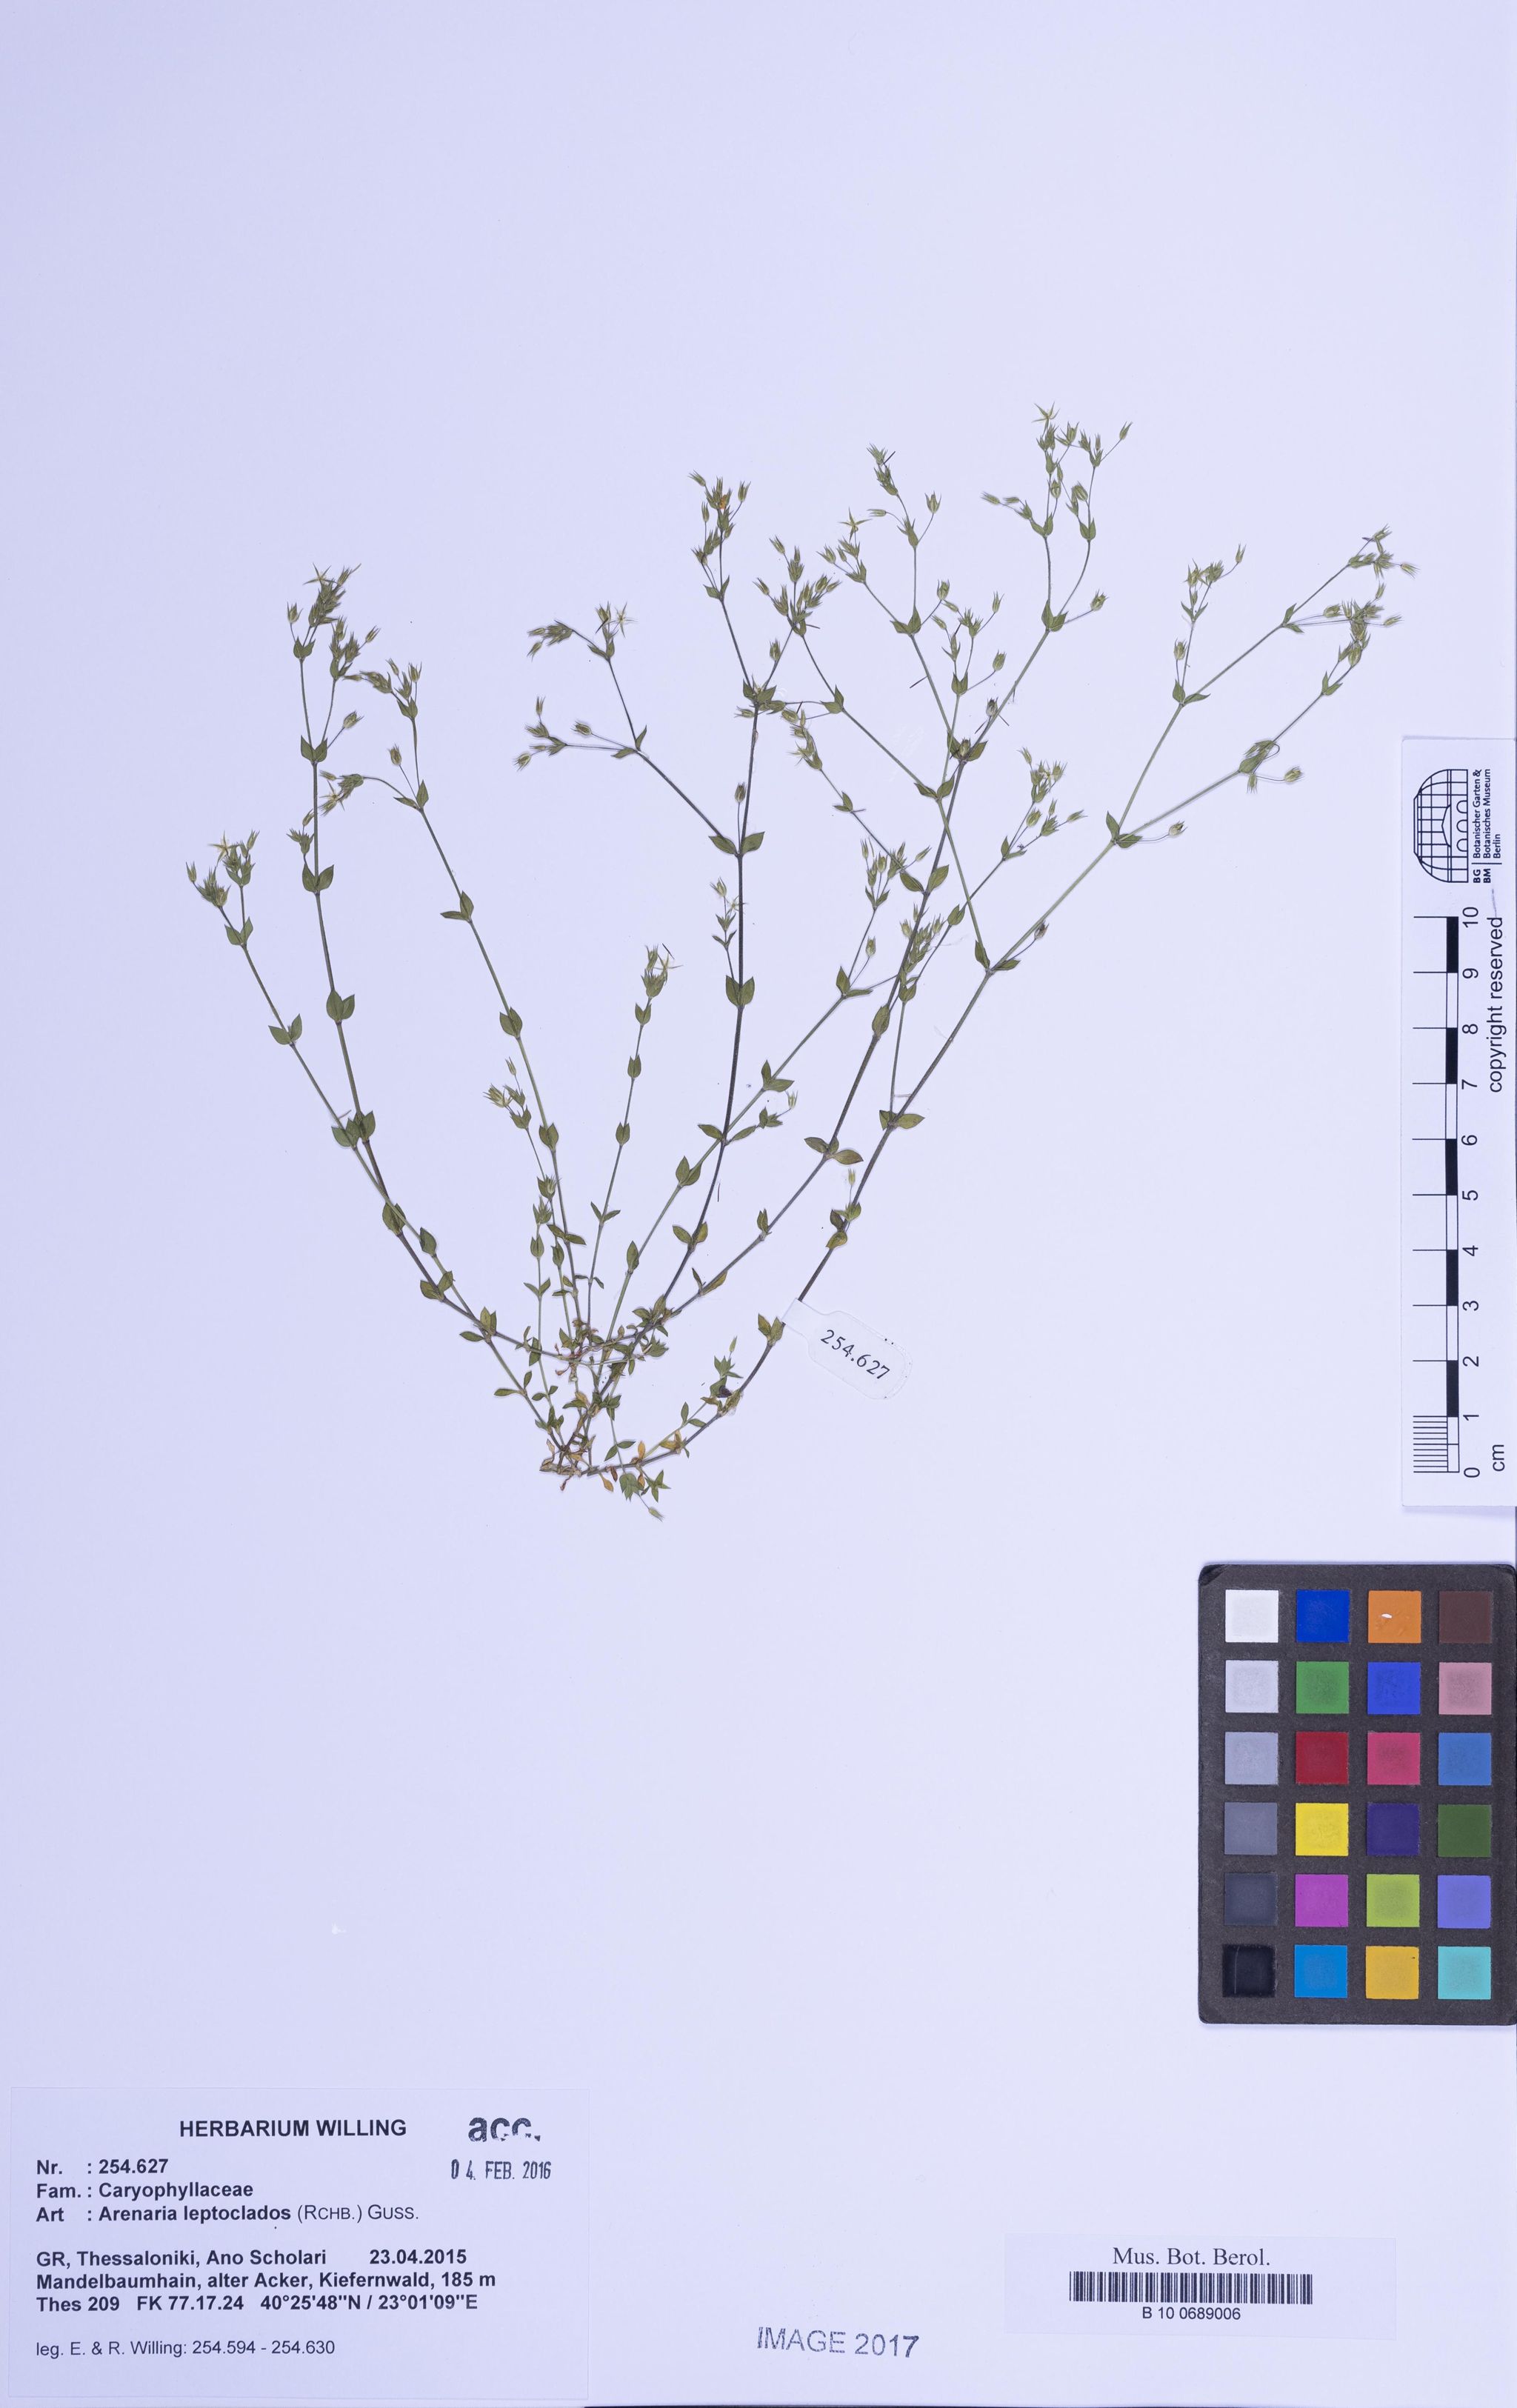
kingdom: Plantae
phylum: Tracheophyta
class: Magnoliopsida
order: Caryophyllales
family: Caryophyllaceae
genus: Arenaria
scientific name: Arenaria leptoclados
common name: Thyme-leaved sandwort
